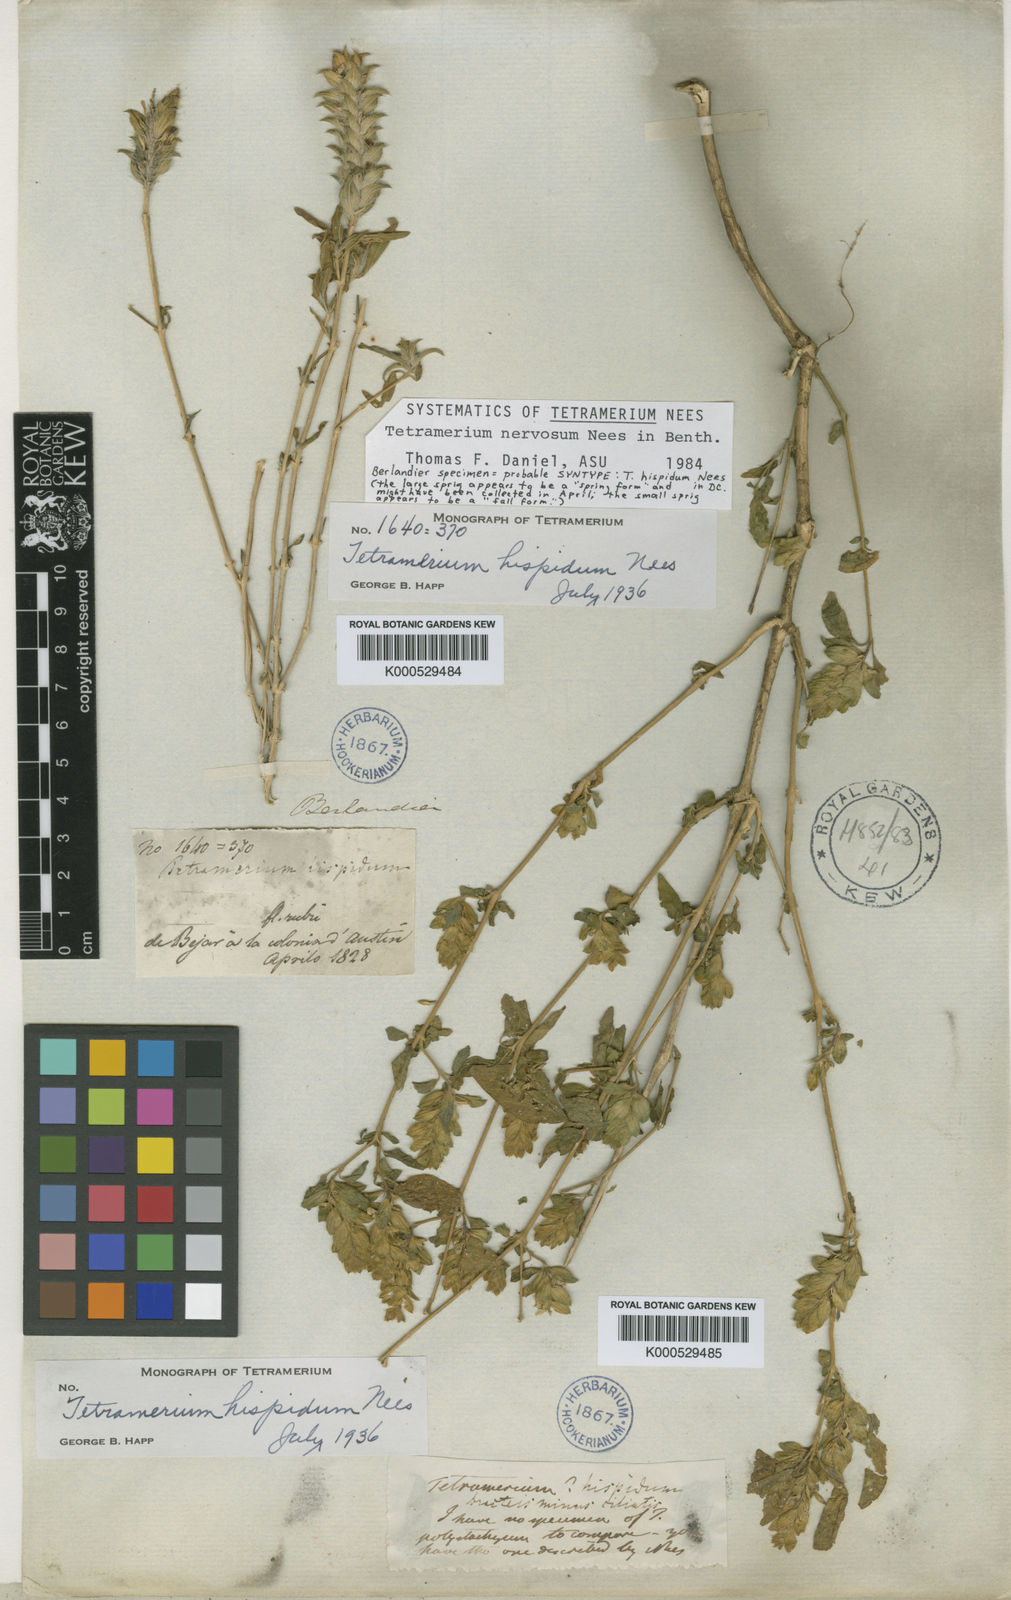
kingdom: Plantae
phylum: Tracheophyta
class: Magnoliopsida
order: Lamiales
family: Acanthaceae
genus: Tetramerium
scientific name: Tetramerium nervosum
